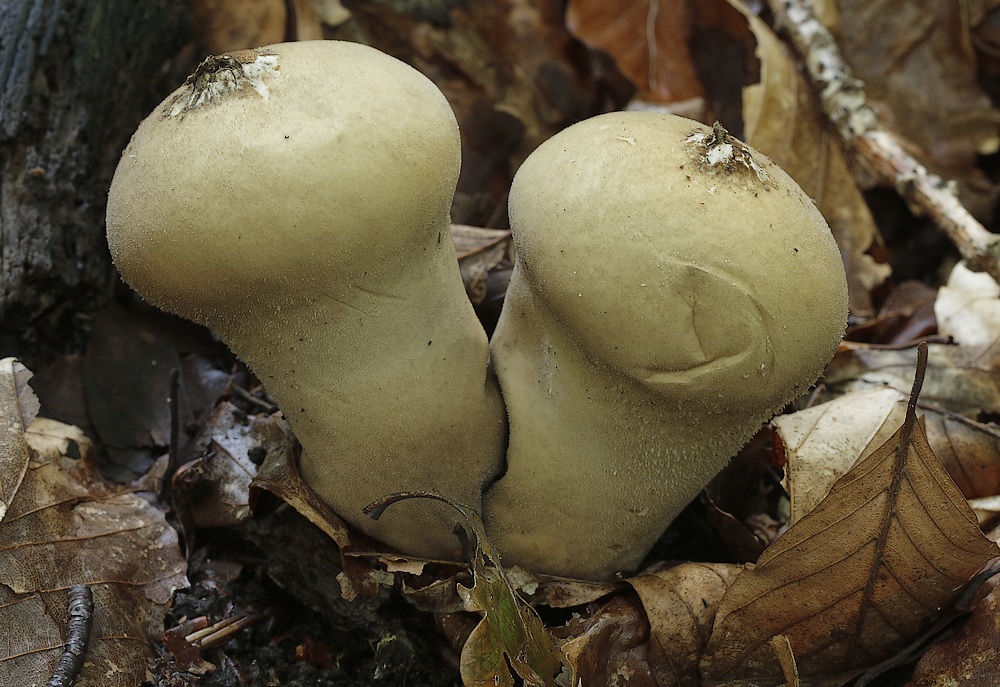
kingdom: Fungi
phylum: Basidiomycota
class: Agaricomycetes
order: Agaricales
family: Agaricaceae
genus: Lycoperdon
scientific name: Lycoperdon
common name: støvbold
